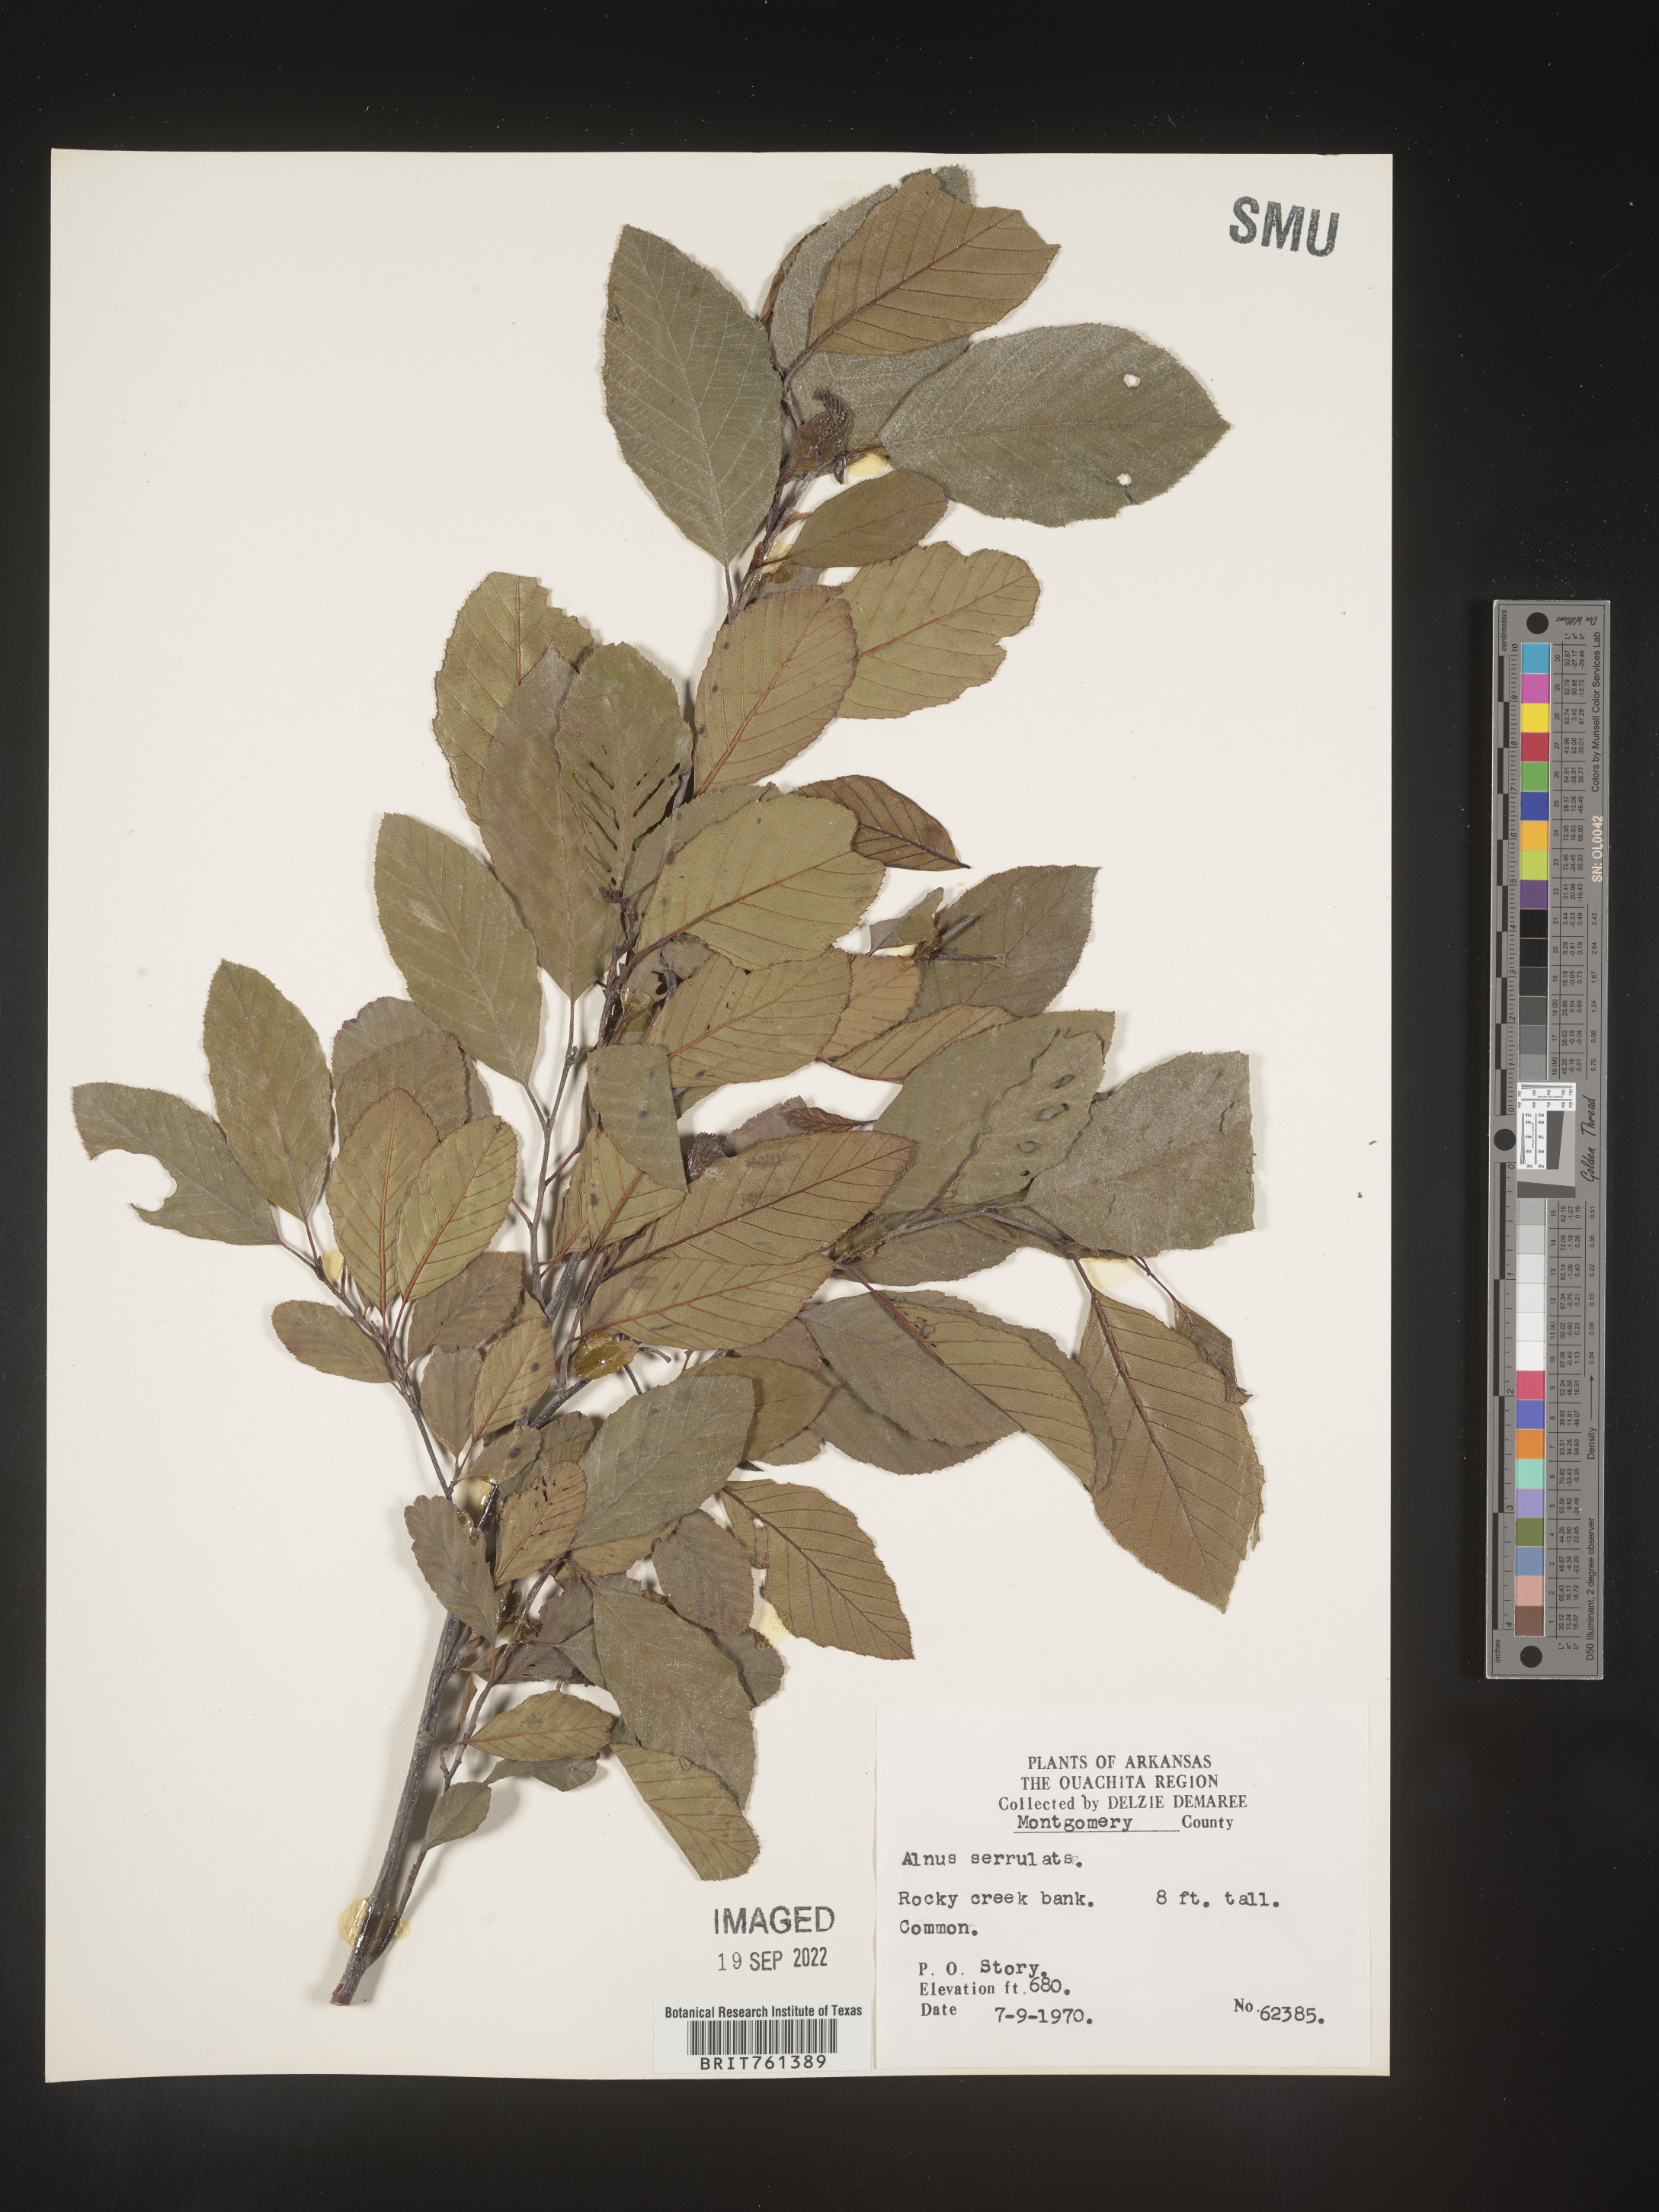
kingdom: Plantae
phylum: Tracheophyta
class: Magnoliopsida
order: Fagales
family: Betulaceae
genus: Alnus
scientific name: Alnus serrulata
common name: Hazel alder
